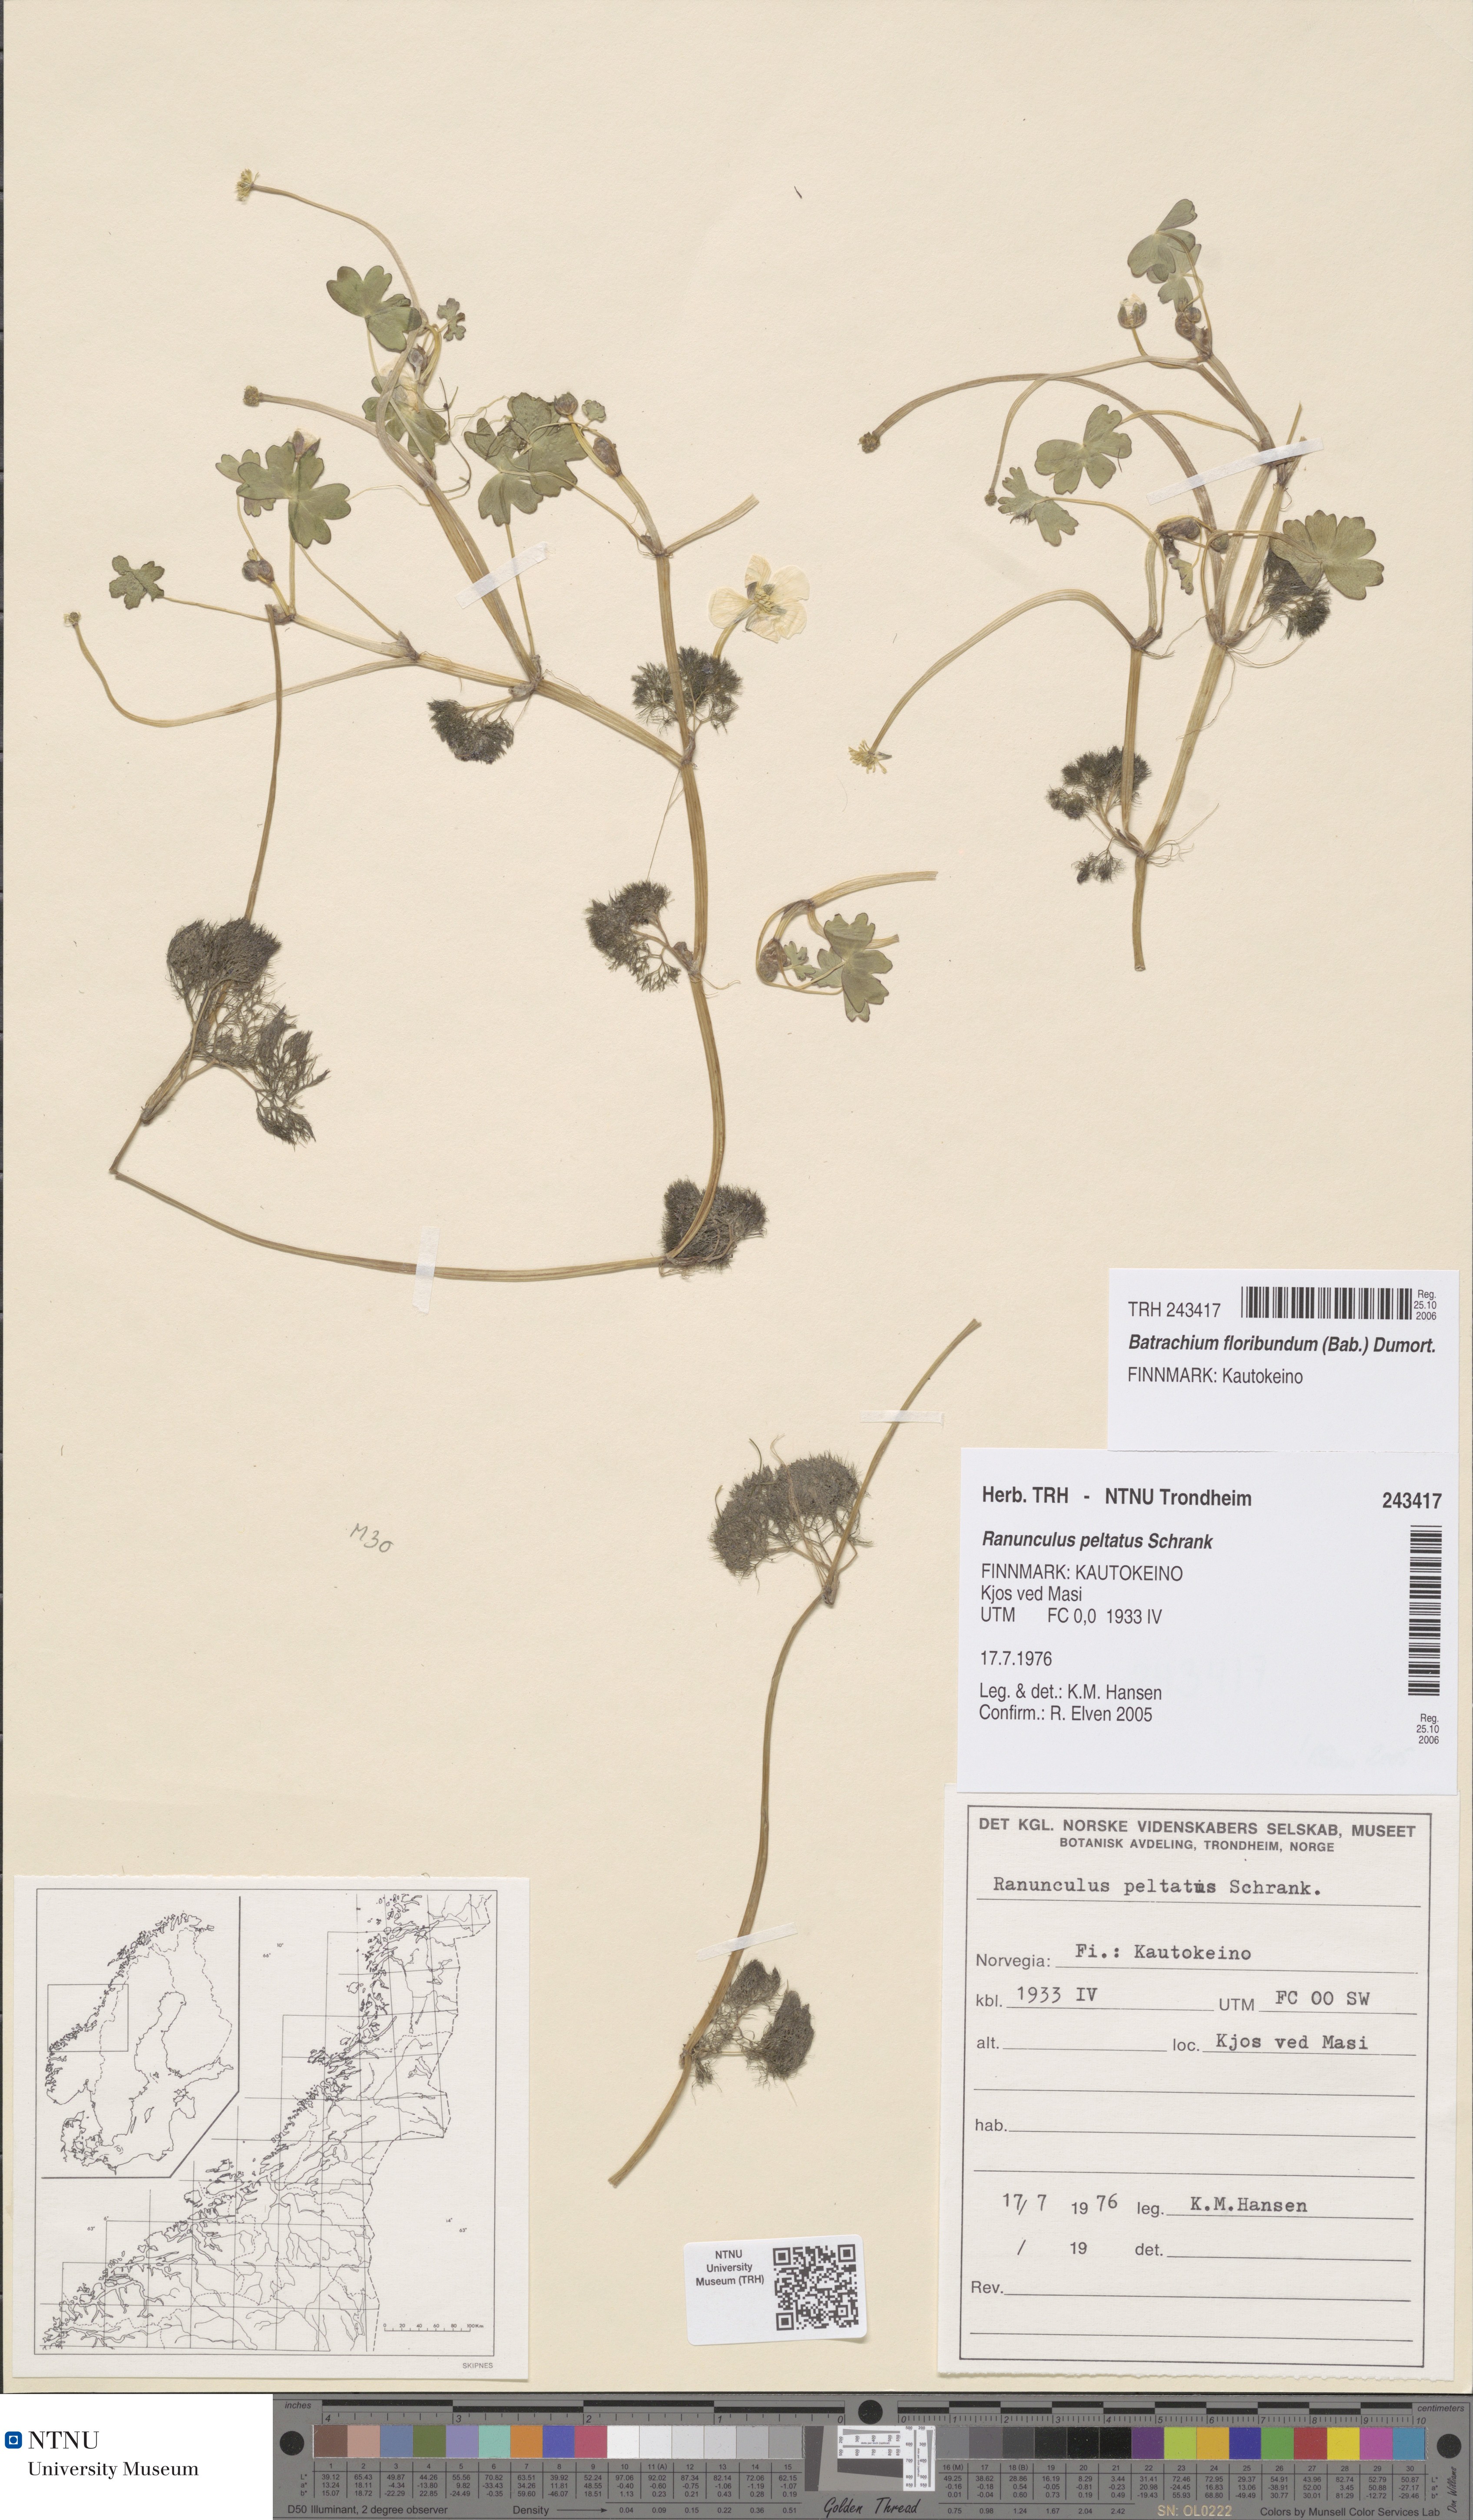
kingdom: Plantae
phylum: Tracheophyta
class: Magnoliopsida
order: Ranunculales
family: Ranunculaceae
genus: Ranunculus
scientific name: Ranunculus schmalhausenii
